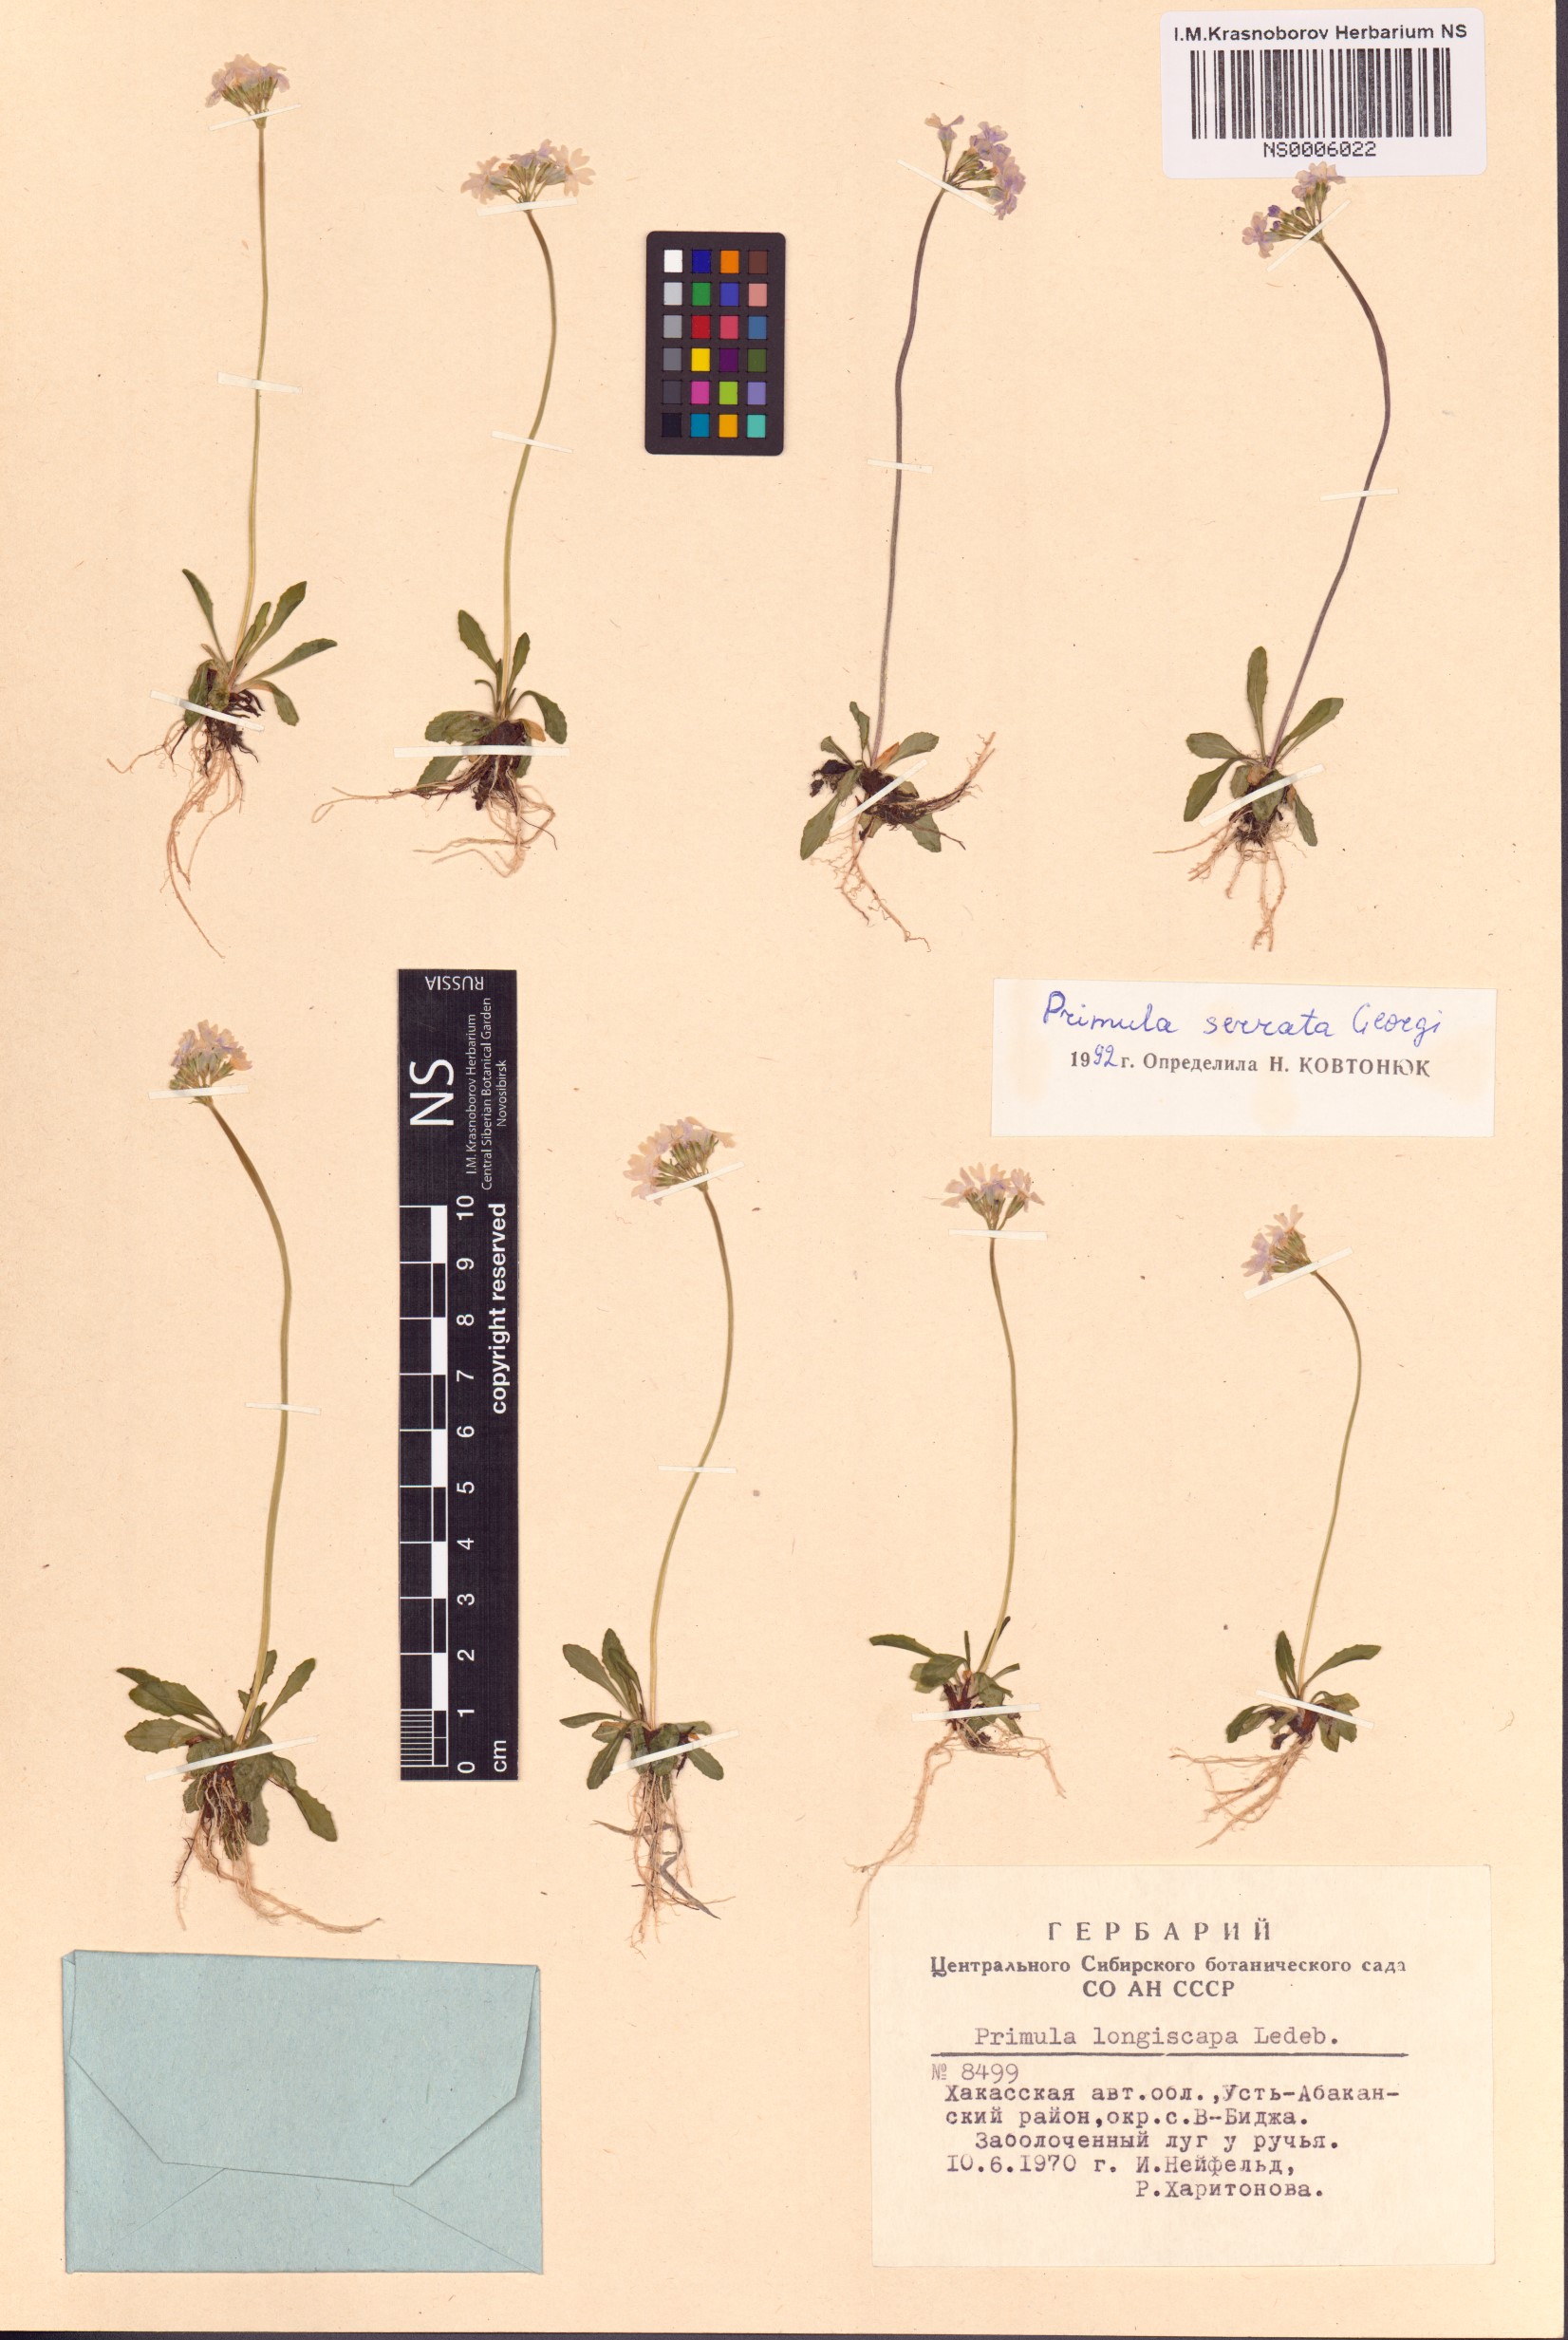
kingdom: Plantae
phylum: Tracheophyta
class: Magnoliopsida
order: Ericales
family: Primulaceae
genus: Primula
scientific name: Primula serrata
